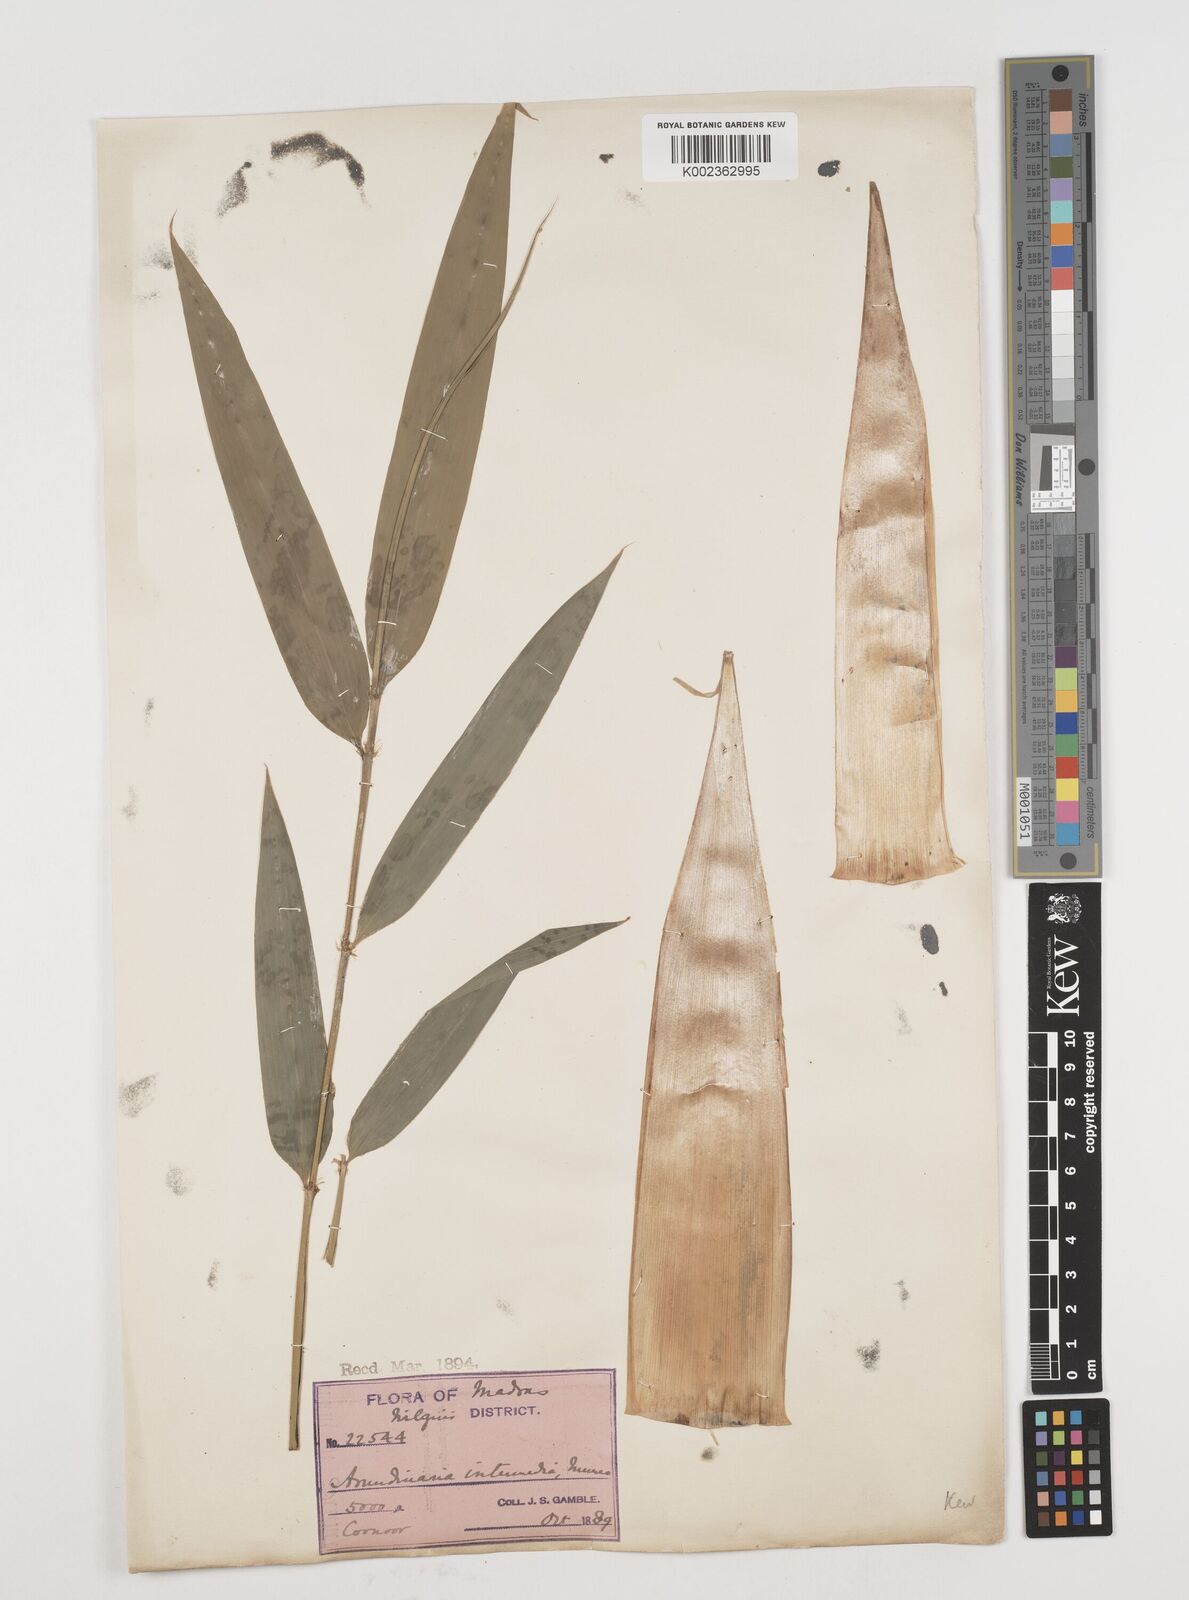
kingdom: Plantae
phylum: Tracheophyta
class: Liliopsida
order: Poales
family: Poaceae
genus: Drepanostachyum
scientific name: Drepanostachyum intermedium
